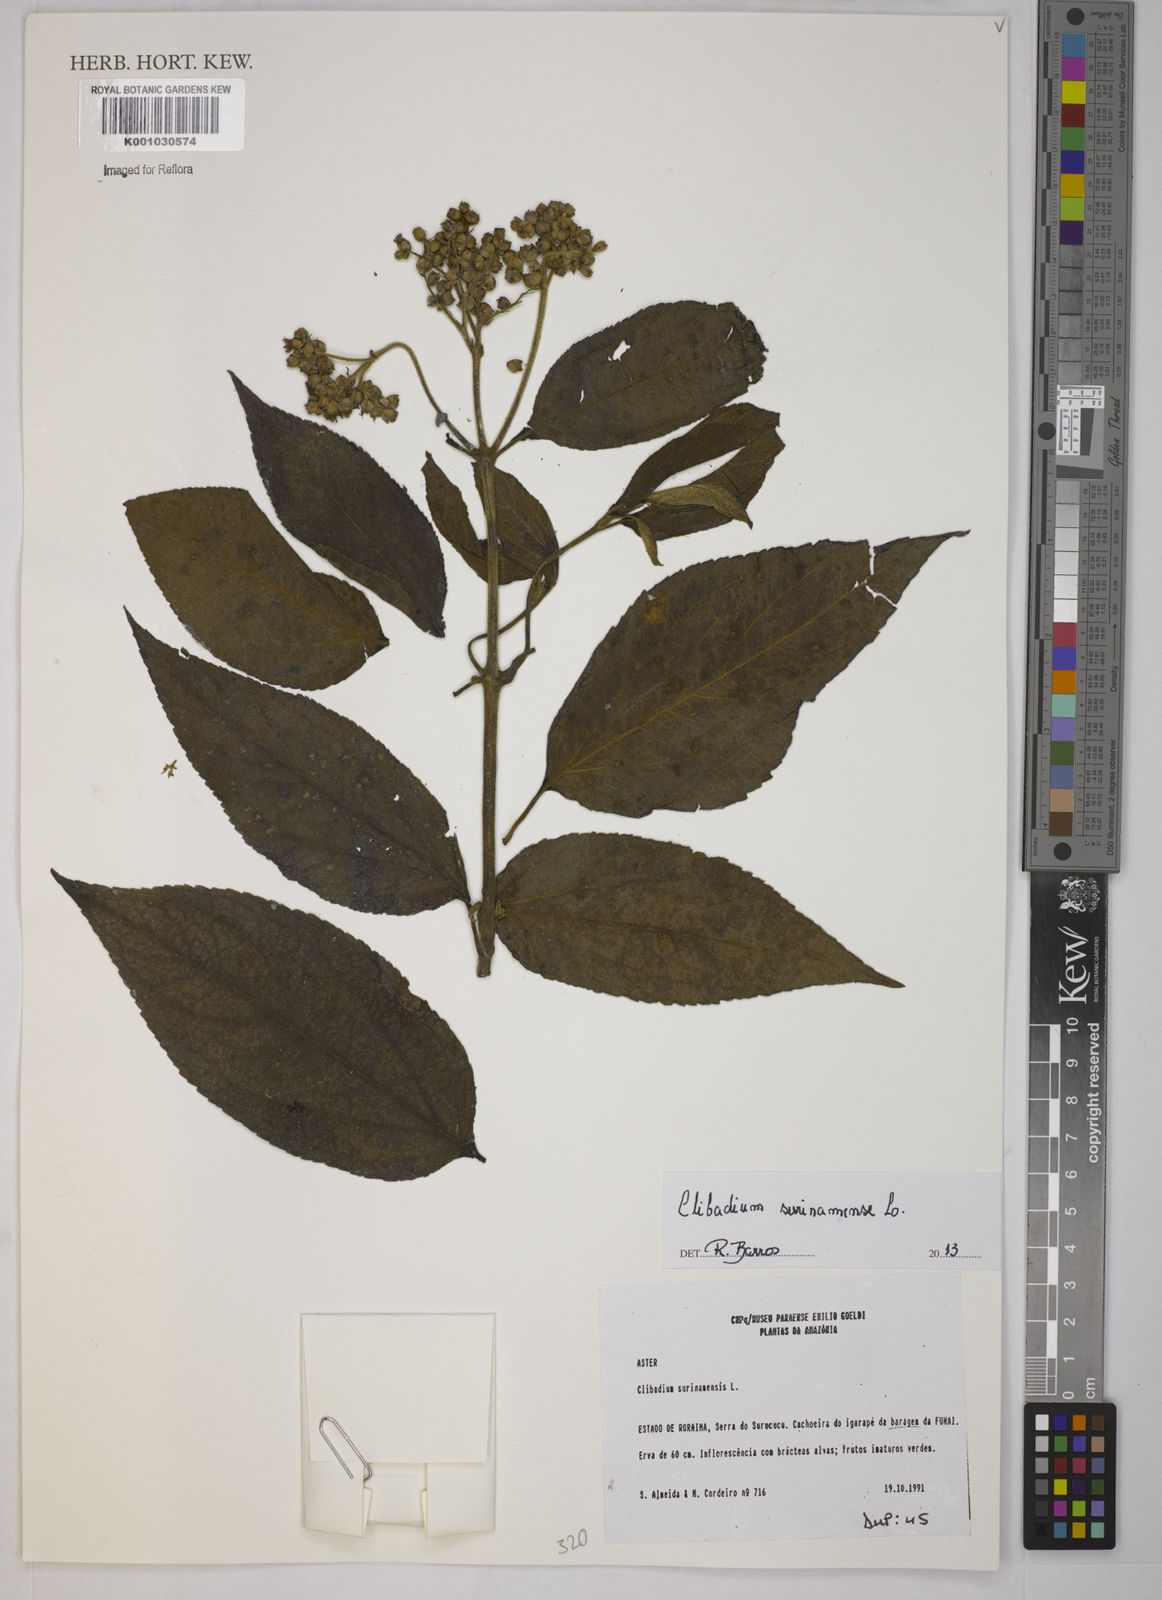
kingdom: Plantae
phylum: Tracheophyta
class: Magnoliopsida
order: Asterales
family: Asteraceae
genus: Clibadium
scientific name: Clibadium
